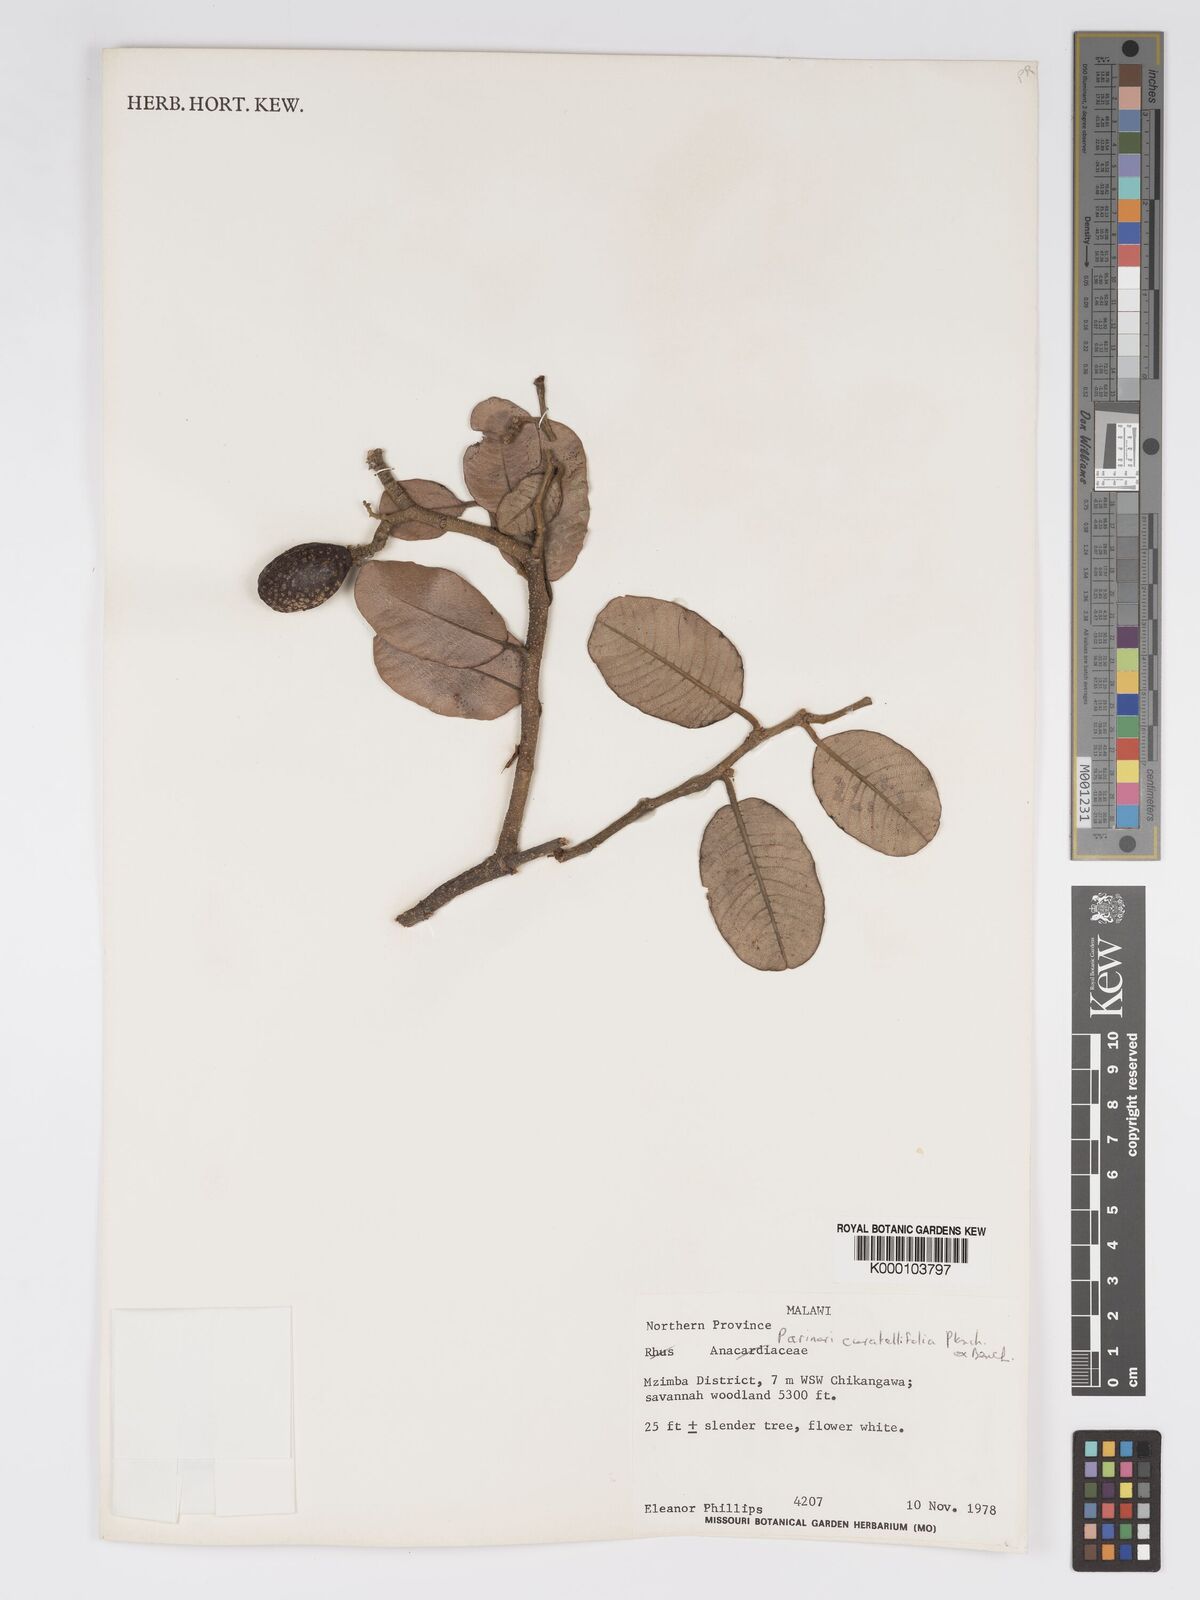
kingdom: Plantae
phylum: Tracheophyta
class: Magnoliopsida
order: Malpighiales
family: Chrysobalanaceae
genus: Parinari
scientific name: Parinari curatellifolia
